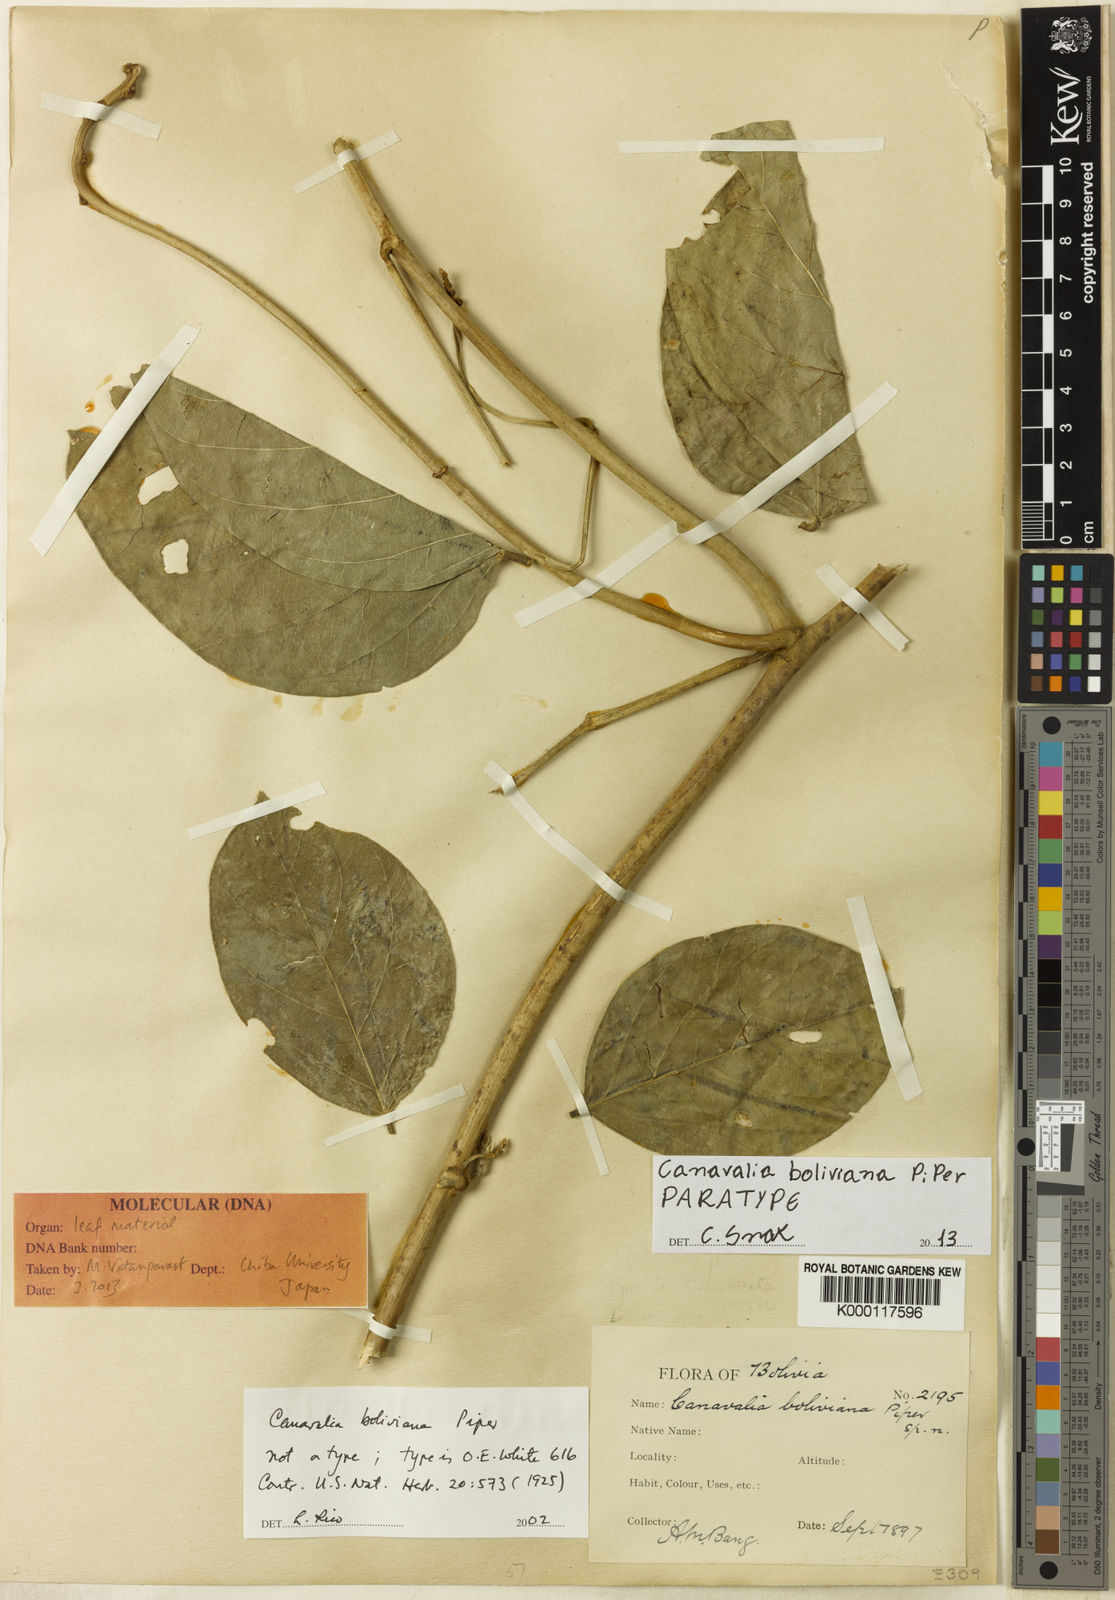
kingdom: Plantae
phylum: Tracheophyta
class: Magnoliopsida
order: Fabales
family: Fabaceae
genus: Canavalia
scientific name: Canavalia boliviana
